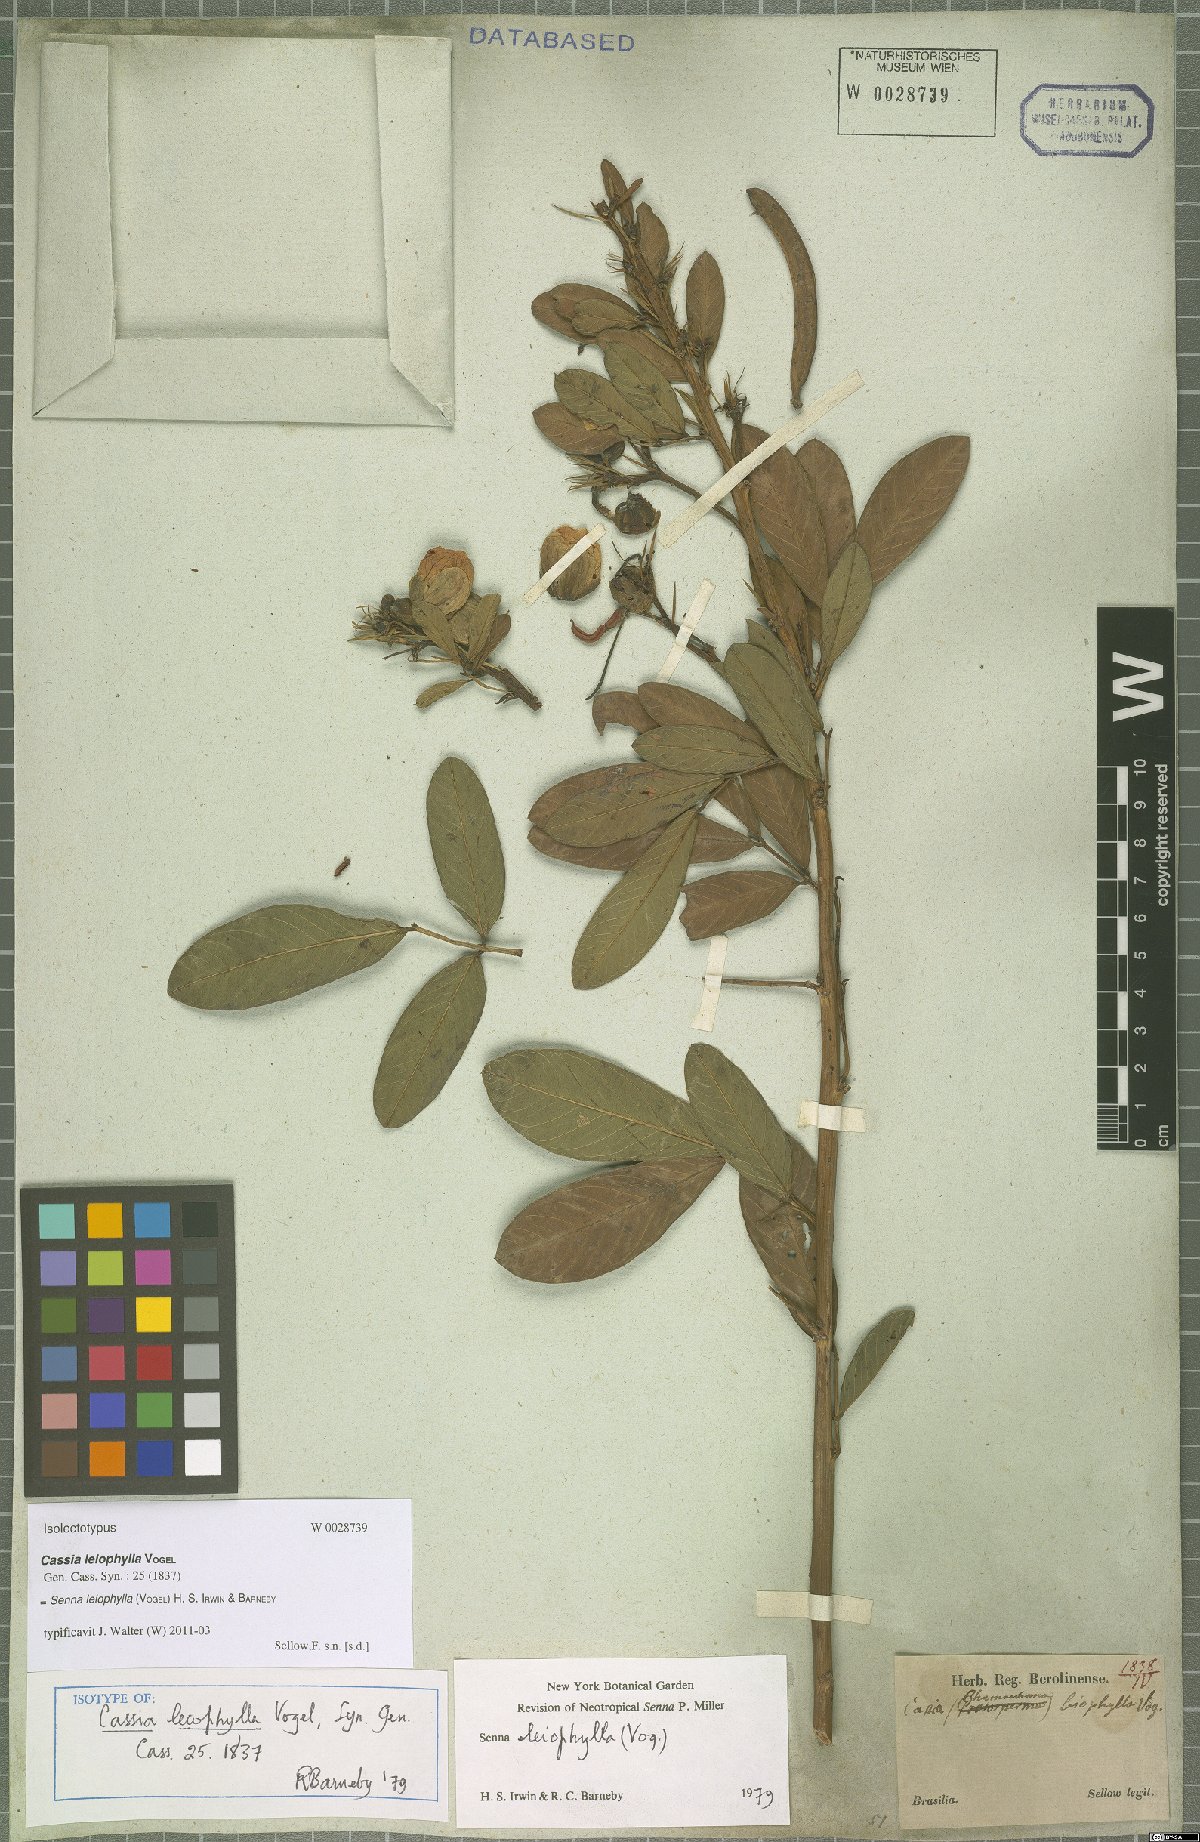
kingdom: Plantae
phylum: Tracheophyta
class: Magnoliopsida
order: Fabales
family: Fabaceae
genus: Senna
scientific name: Senna leiophylla
